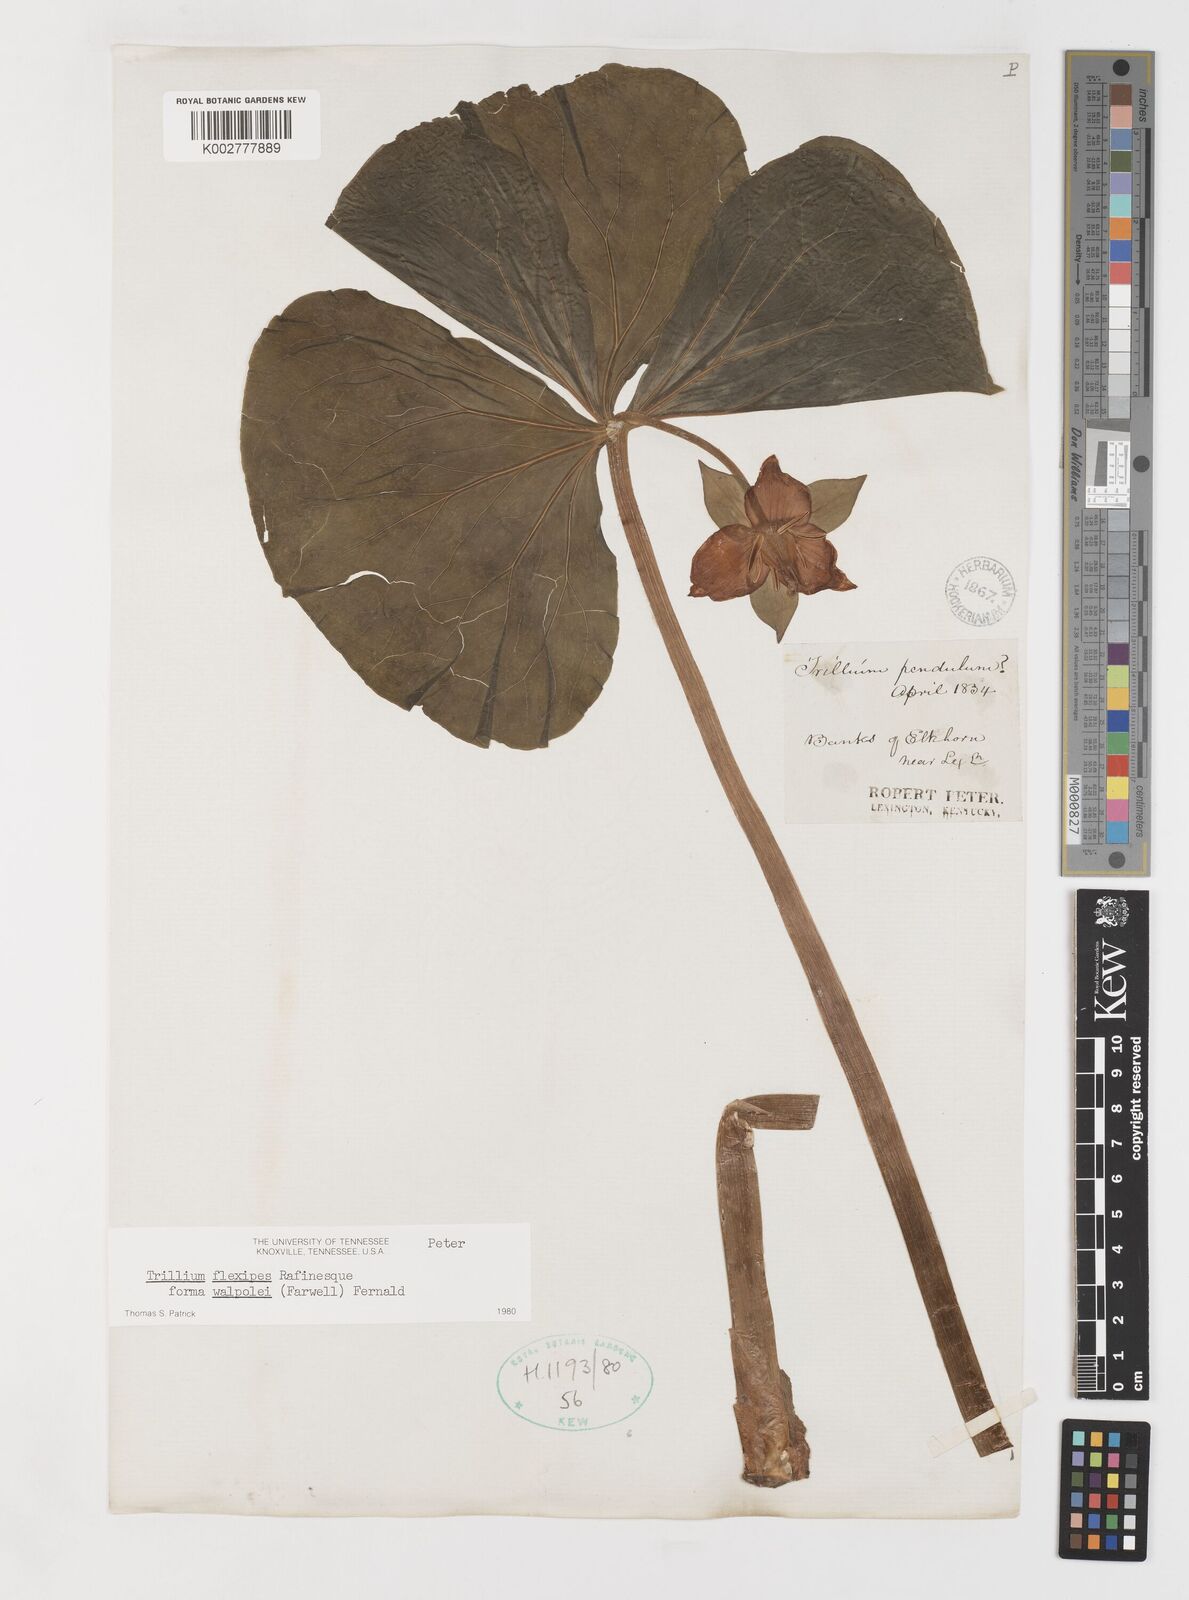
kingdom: Plantae
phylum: Tracheophyta
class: Liliopsida
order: Liliales
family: Melanthiaceae
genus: Trillium
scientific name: Trillium flexipes
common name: Drooping trillium
